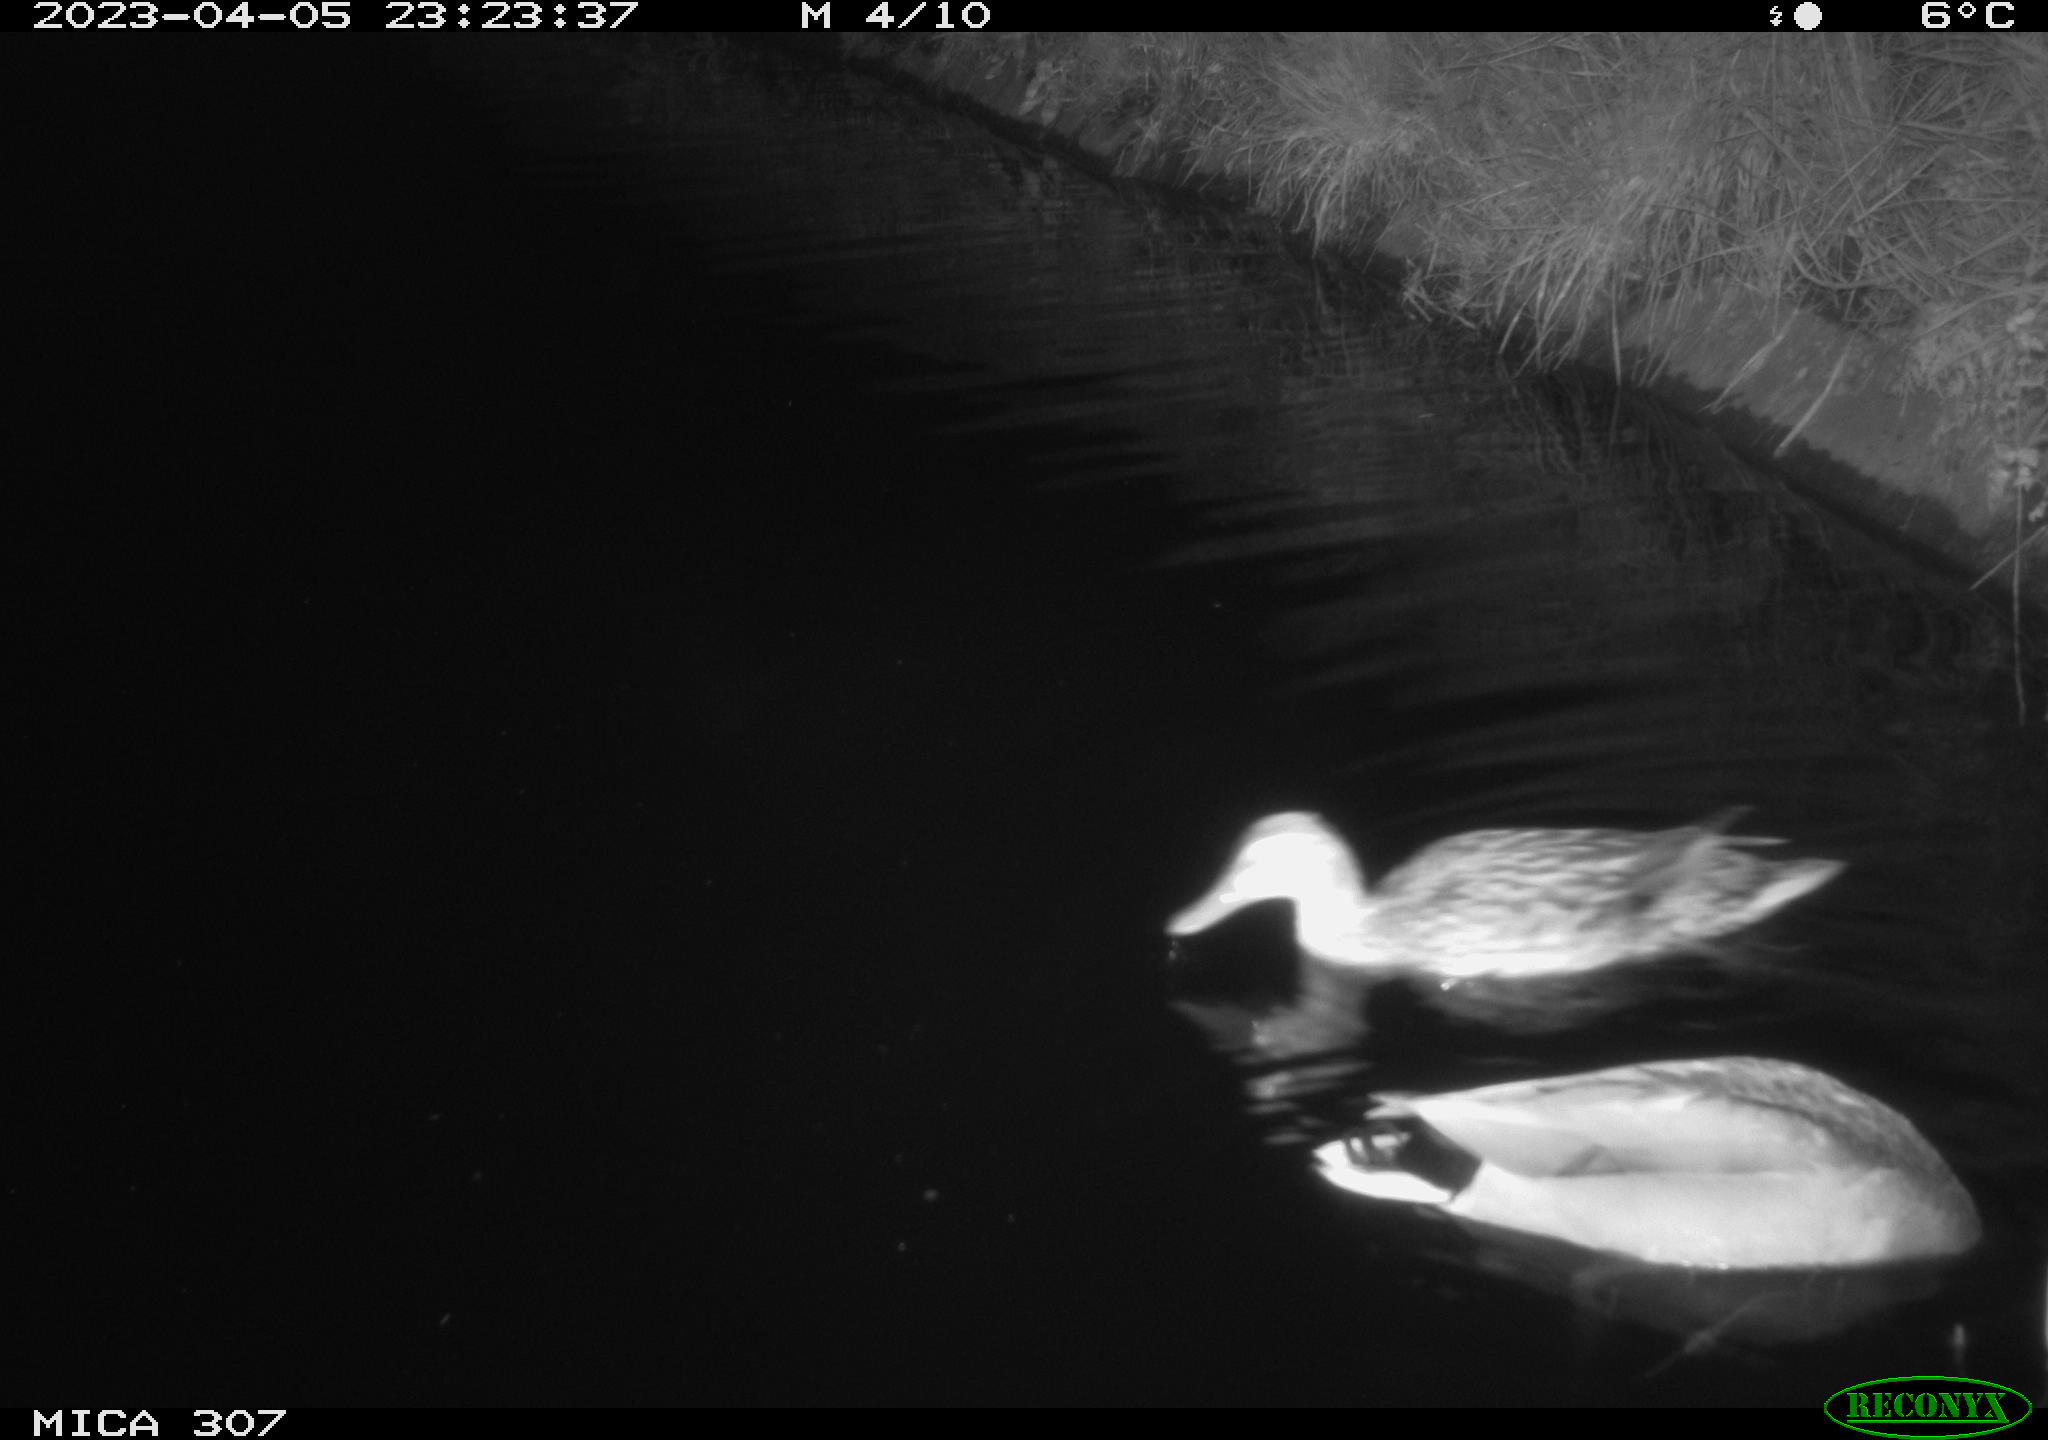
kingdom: Animalia
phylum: Chordata
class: Aves
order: Anseriformes
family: Anatidae
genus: Anas
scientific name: Anas
